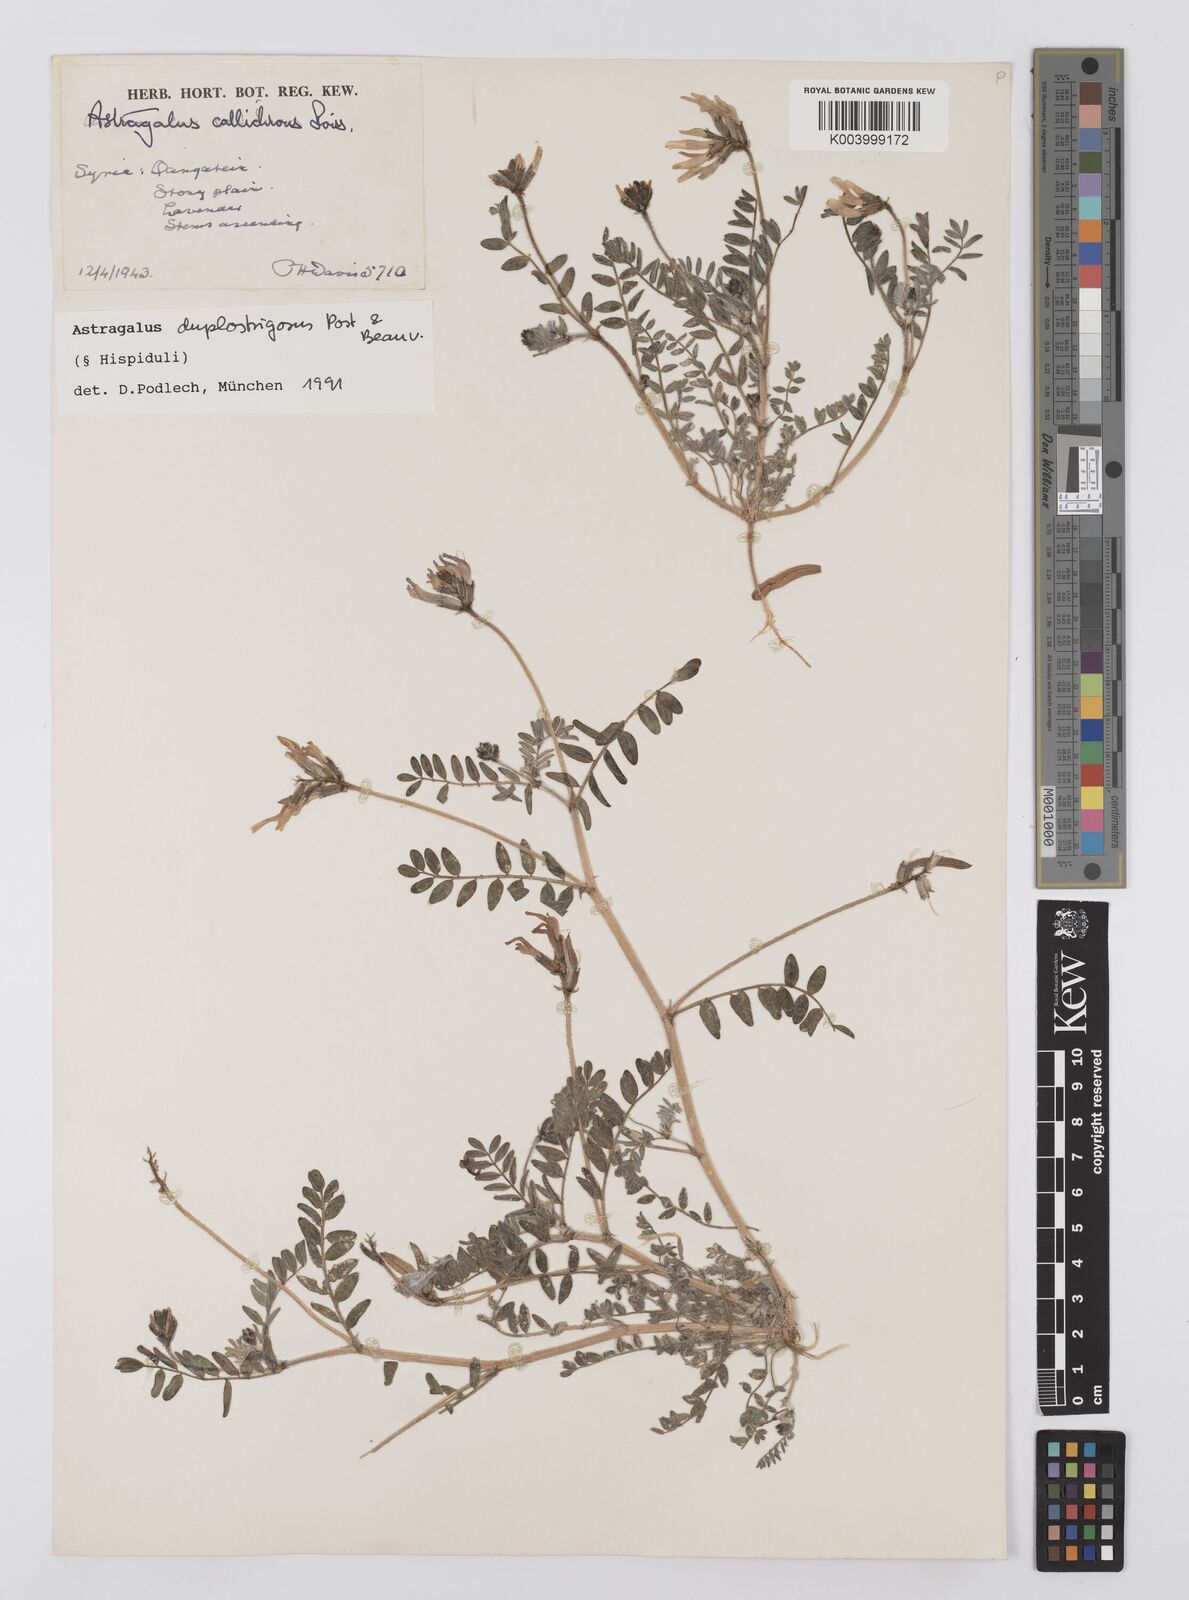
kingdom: Plantae
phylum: Tracheophyta
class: Magnoliopsida
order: Fabales
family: Fabaceae
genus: Astragalus
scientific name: Astragalus duplostrigosus
